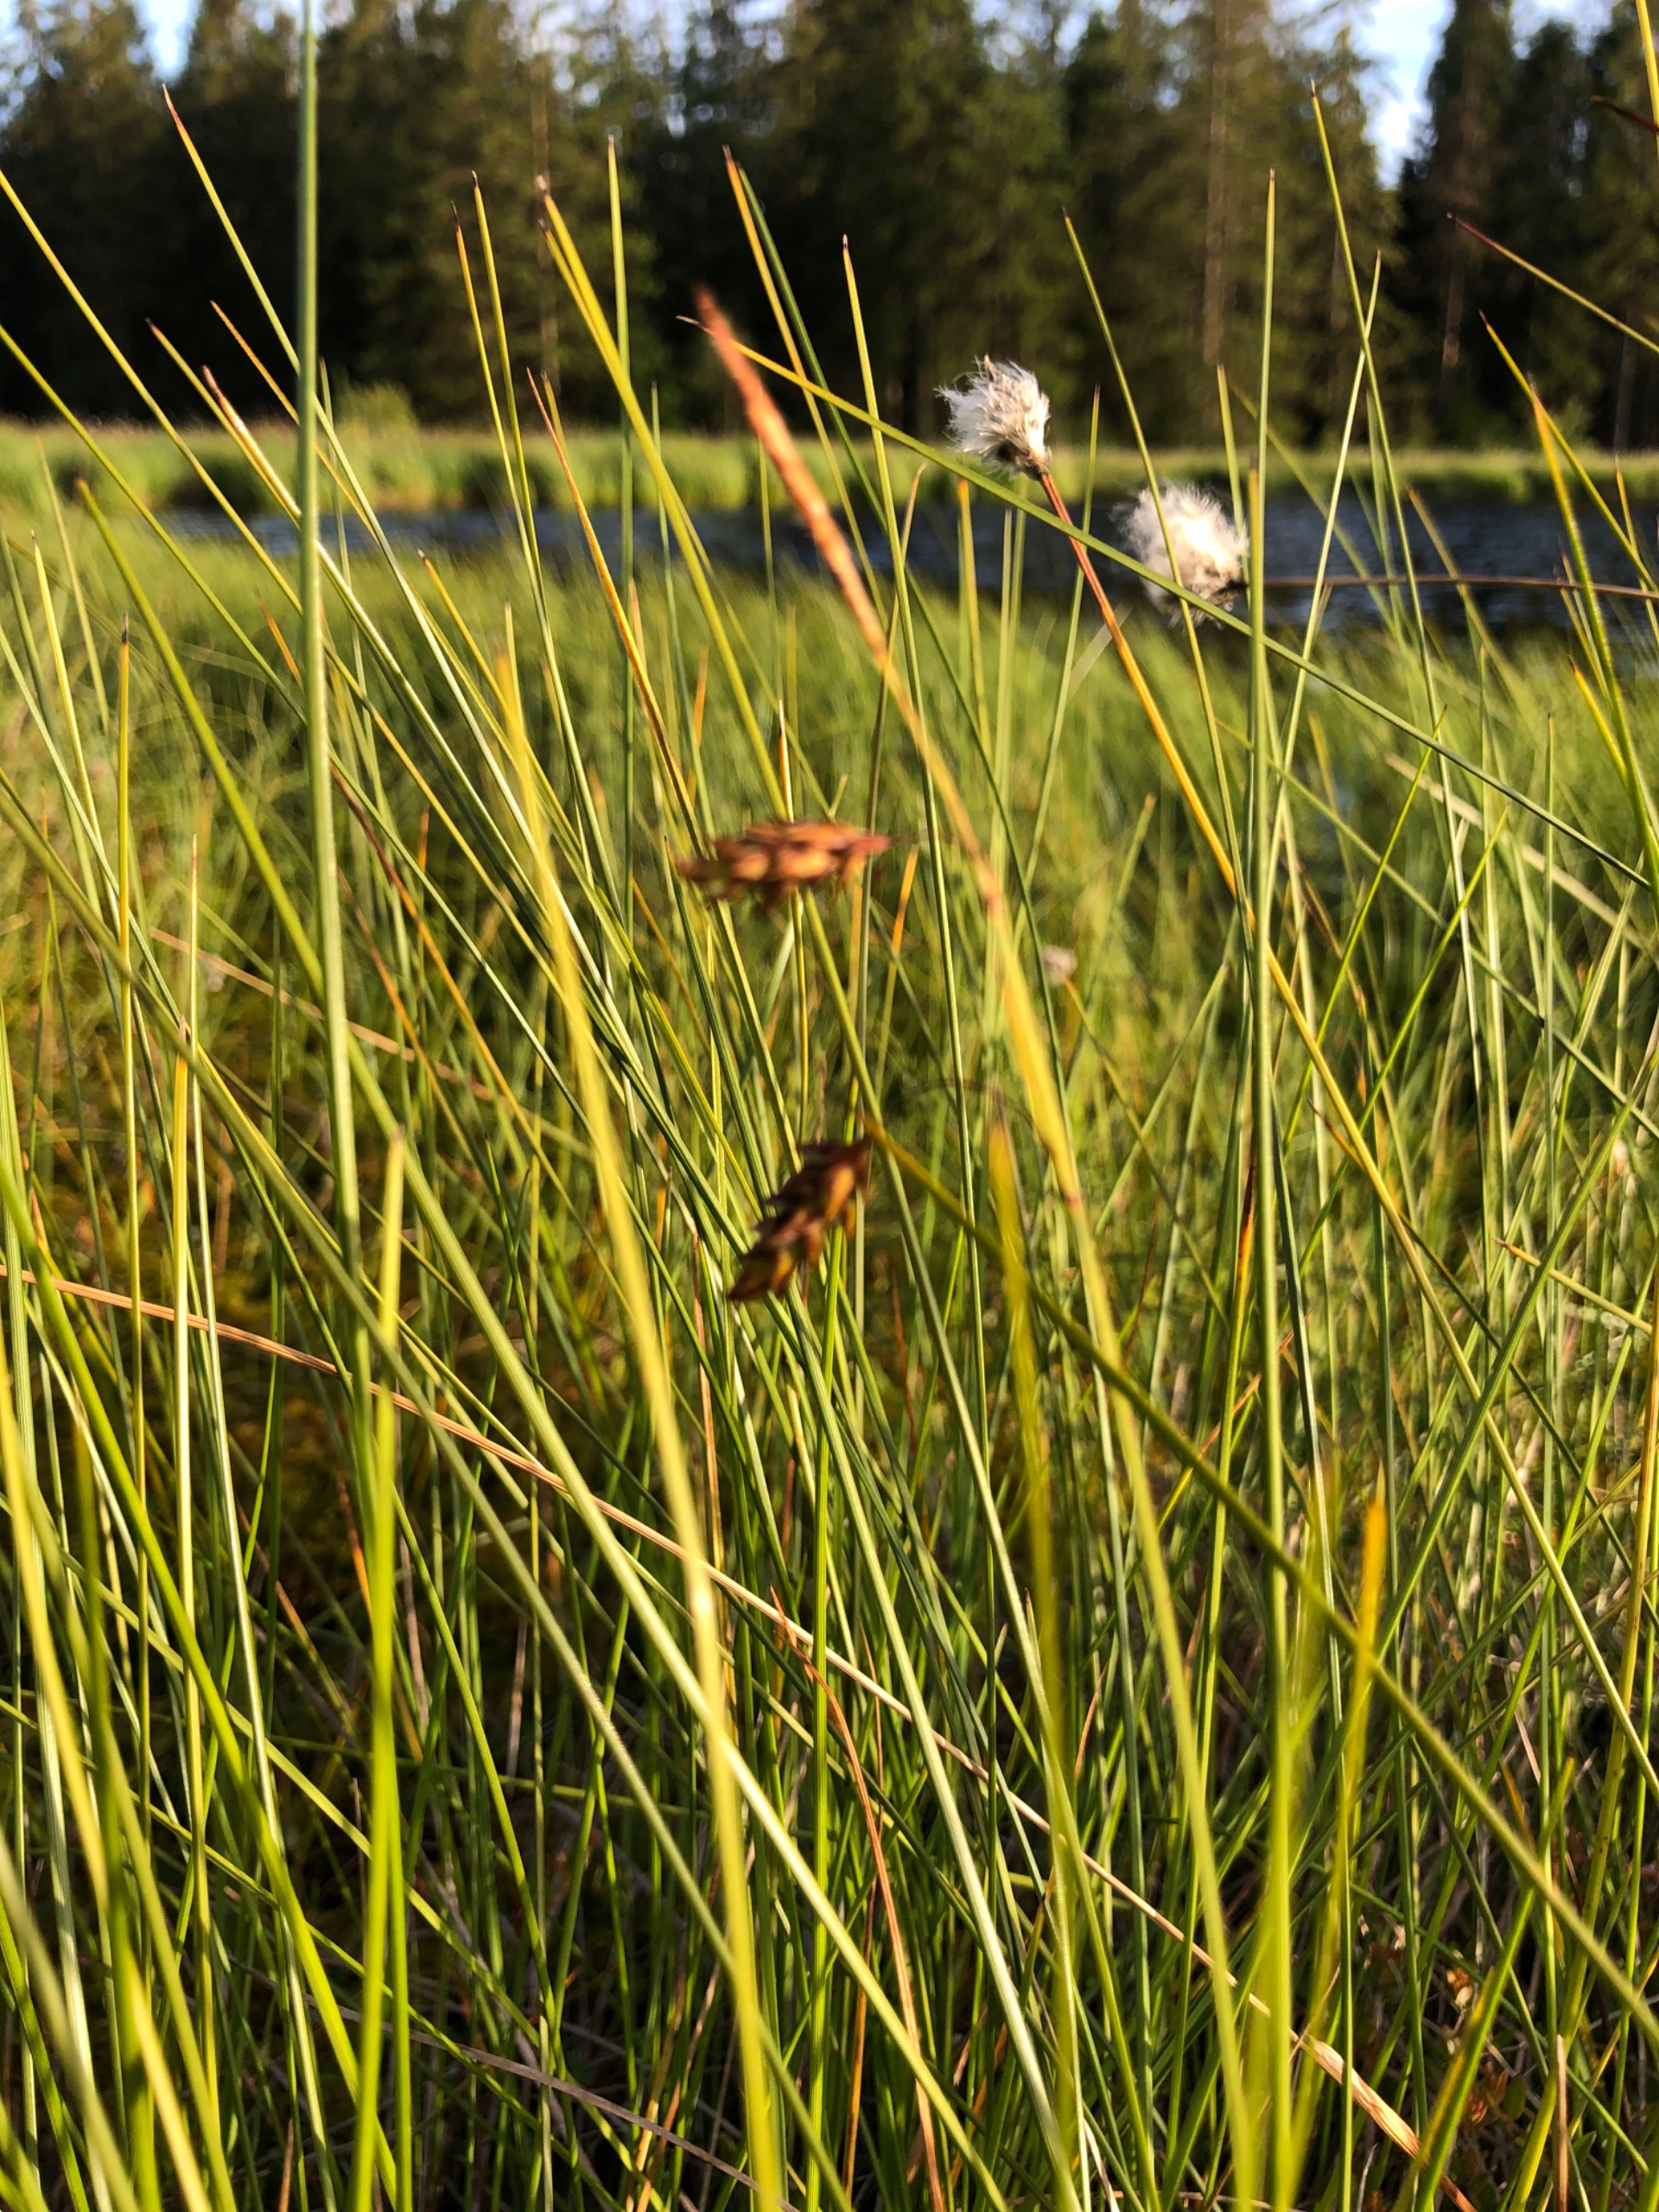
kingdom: Plantae
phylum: Tracheophyta
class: Liliopsida
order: Poales
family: Cyperaceae
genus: Carex
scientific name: Carex limosa
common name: Dynd-star
